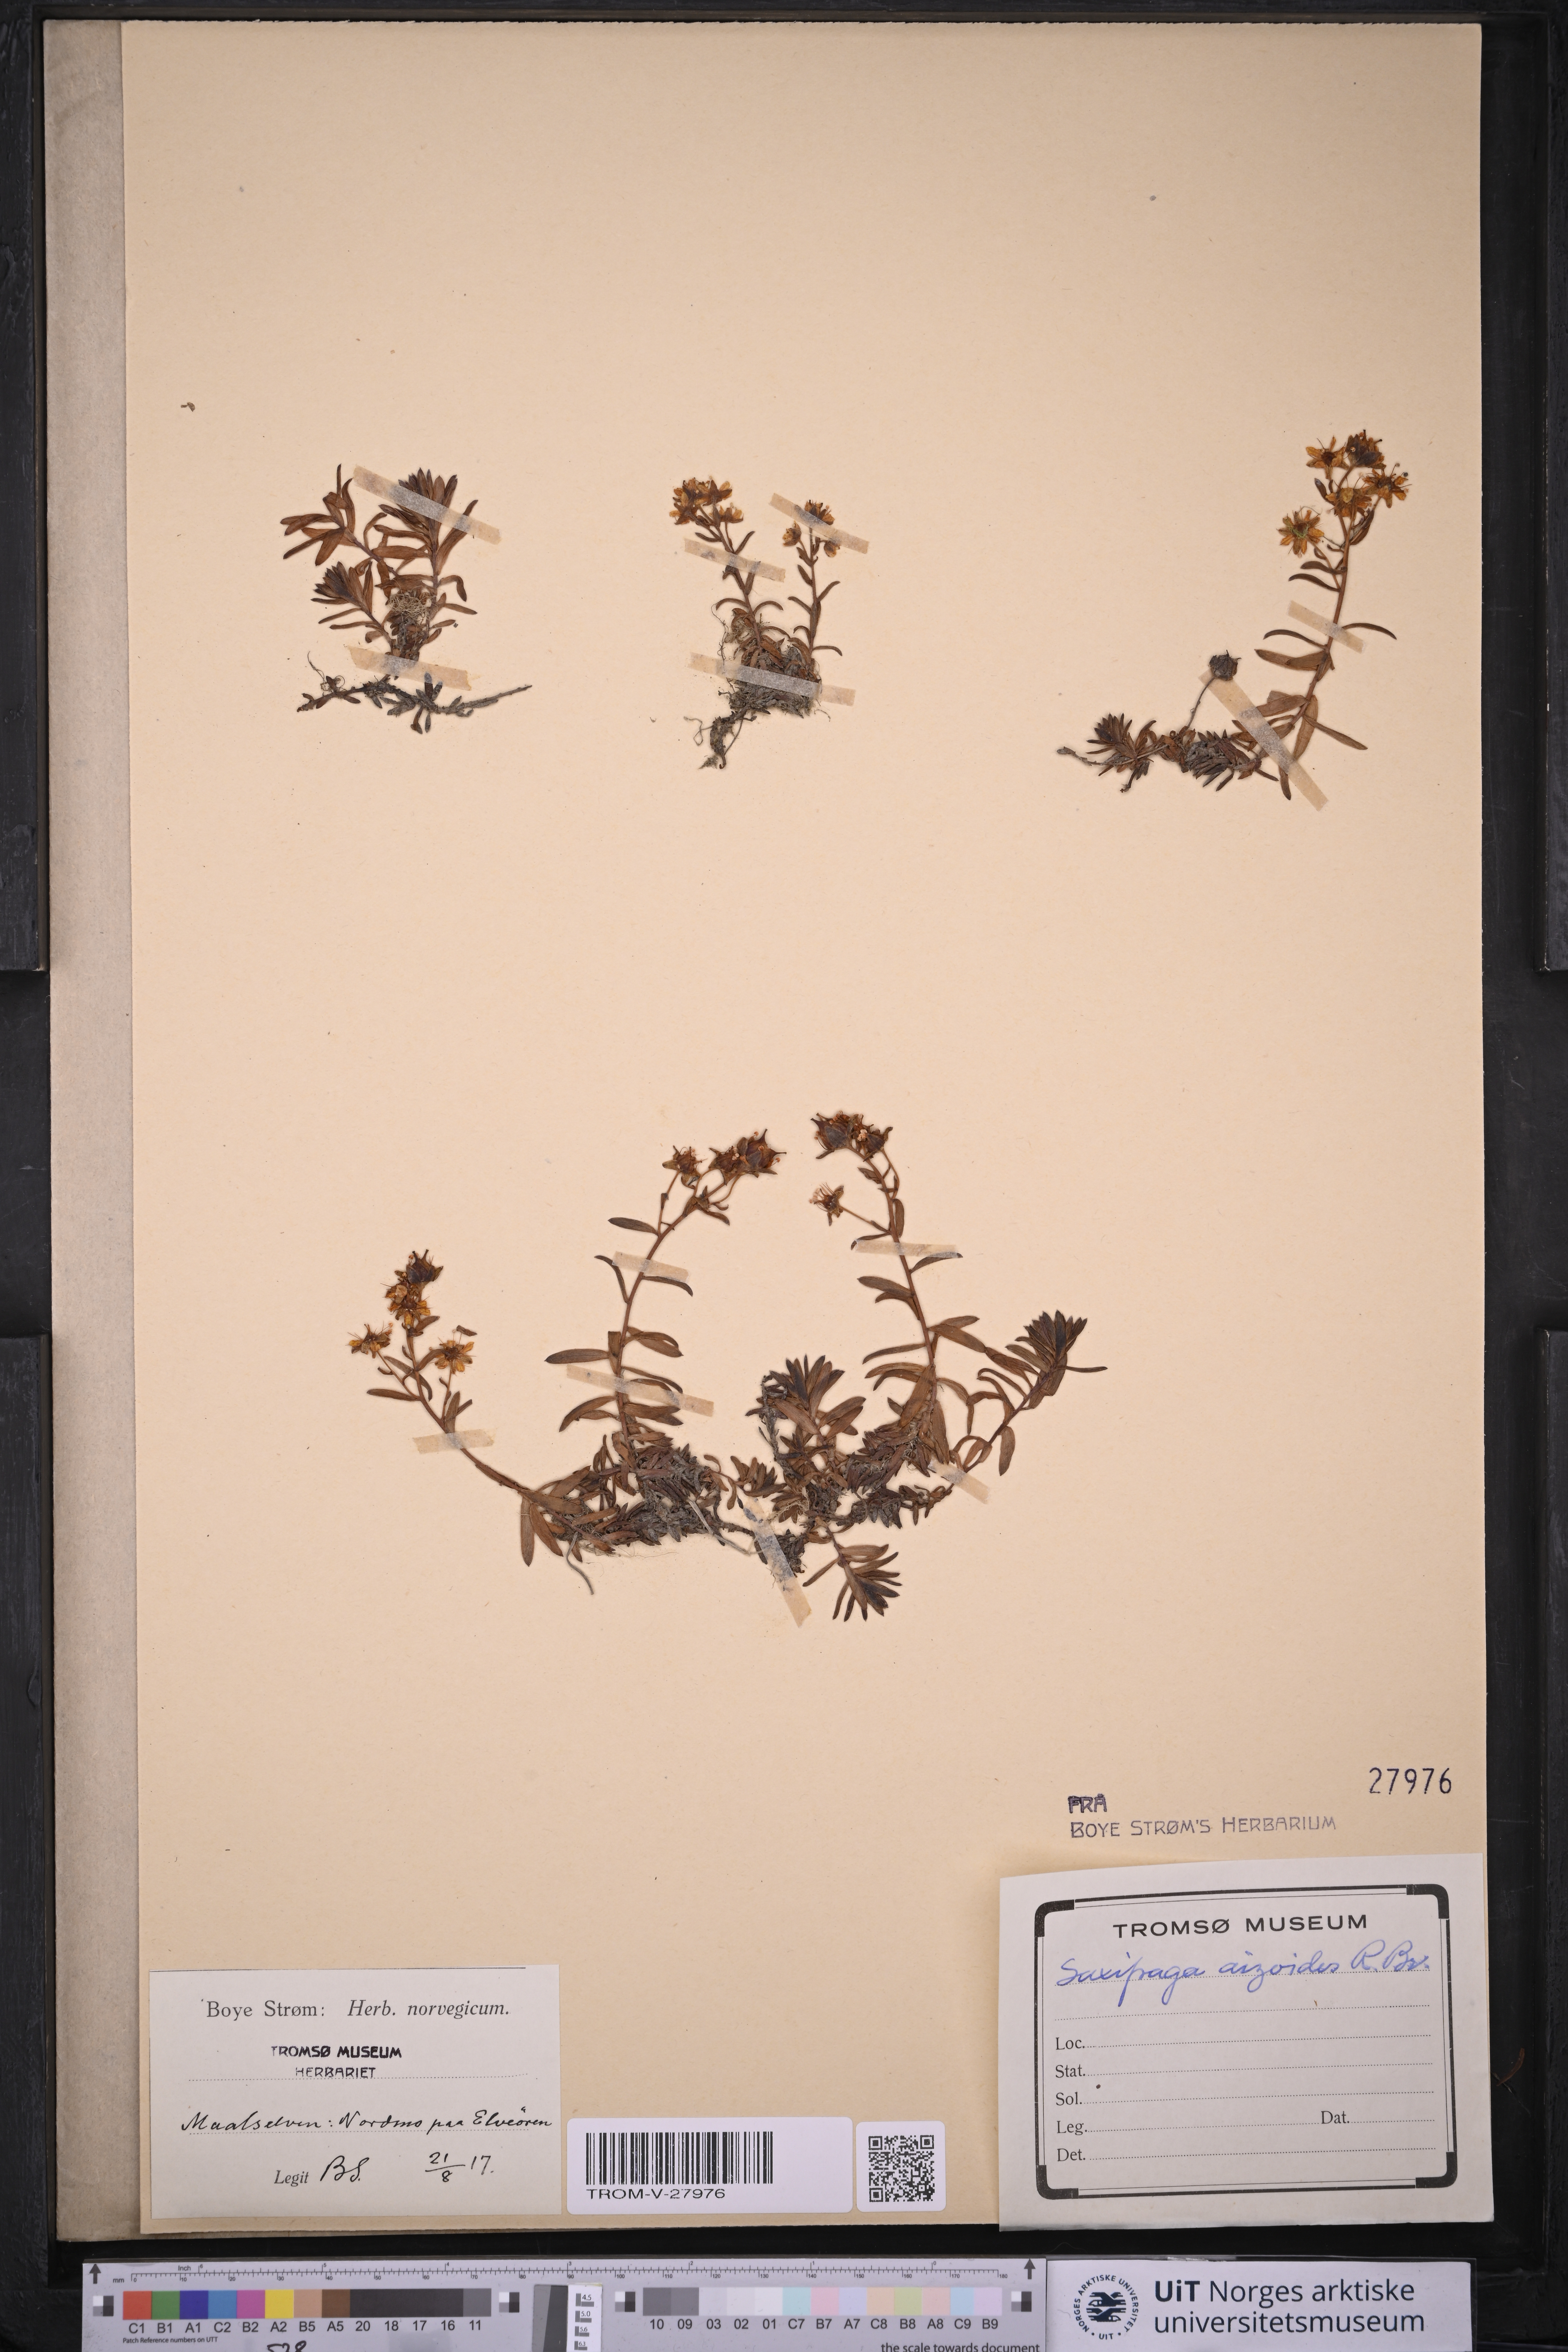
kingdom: Plantae
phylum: Tracheophyta
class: Magnoliopsida
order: Saxifragales
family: Saxifragaceae
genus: Saxifraga
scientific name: Saxifraga aizoides
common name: Yellow mountain saxifrage
